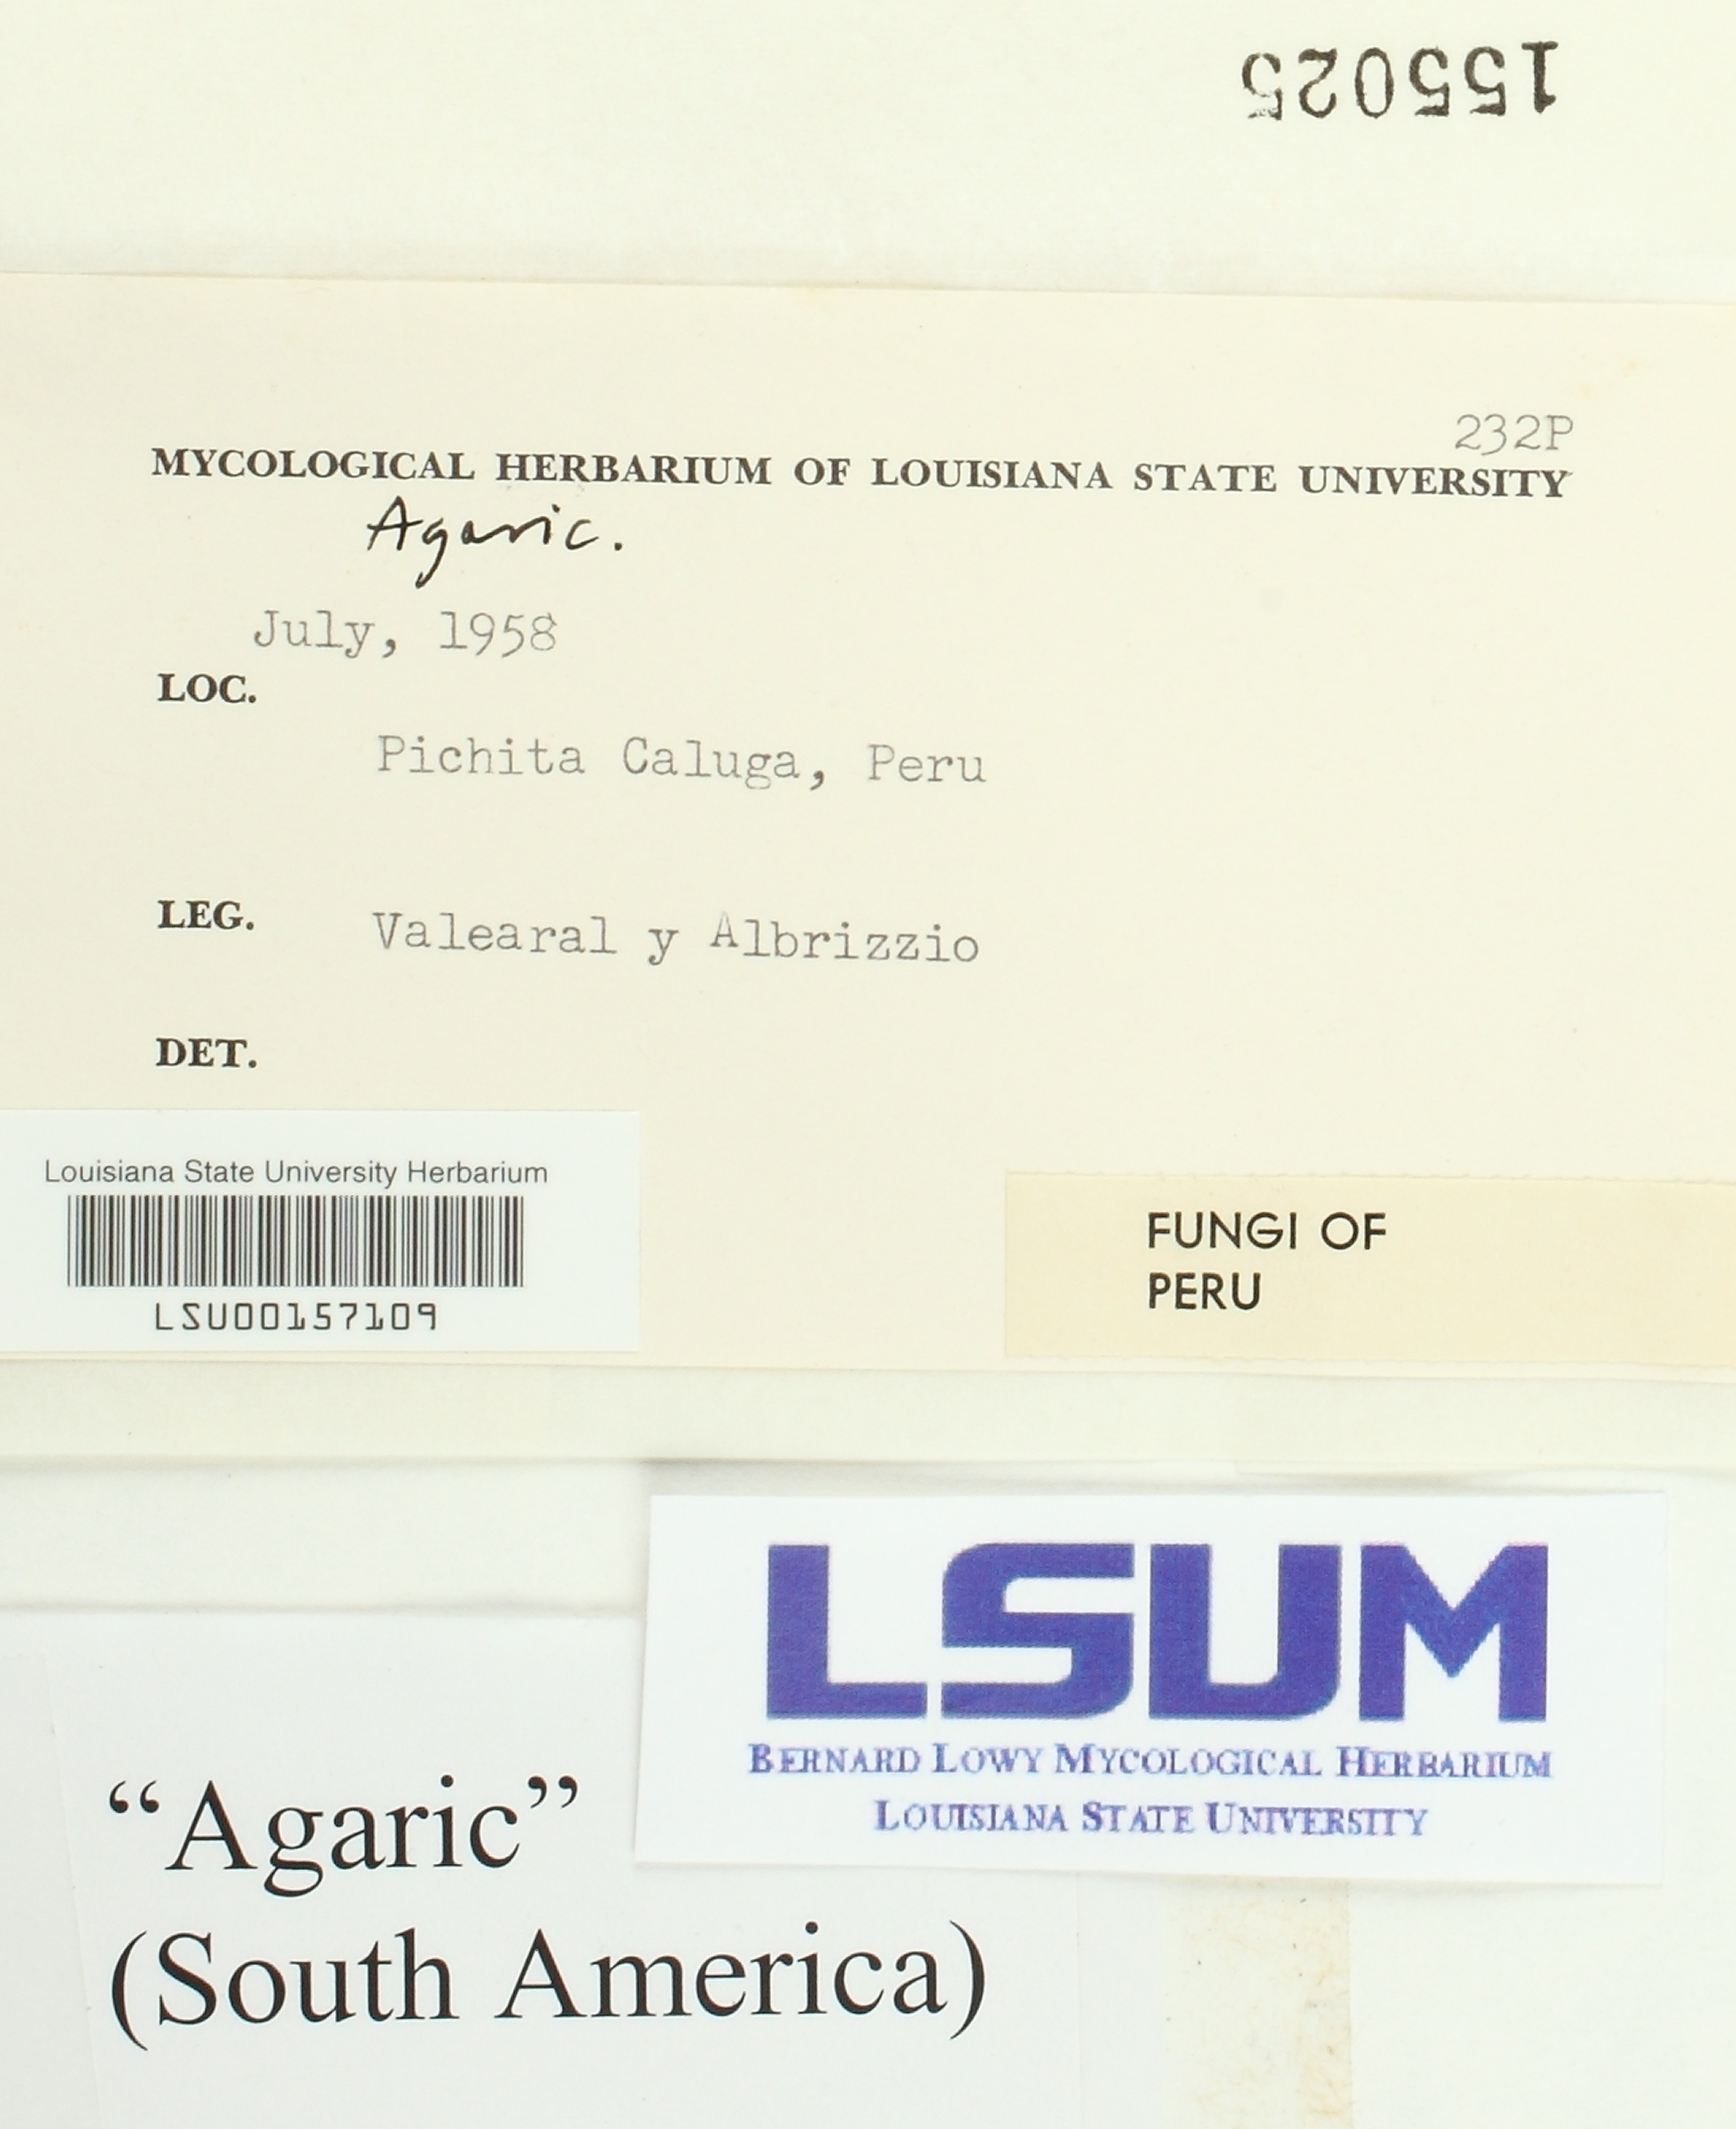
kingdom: Fungi
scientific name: Fungi
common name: Fungi
